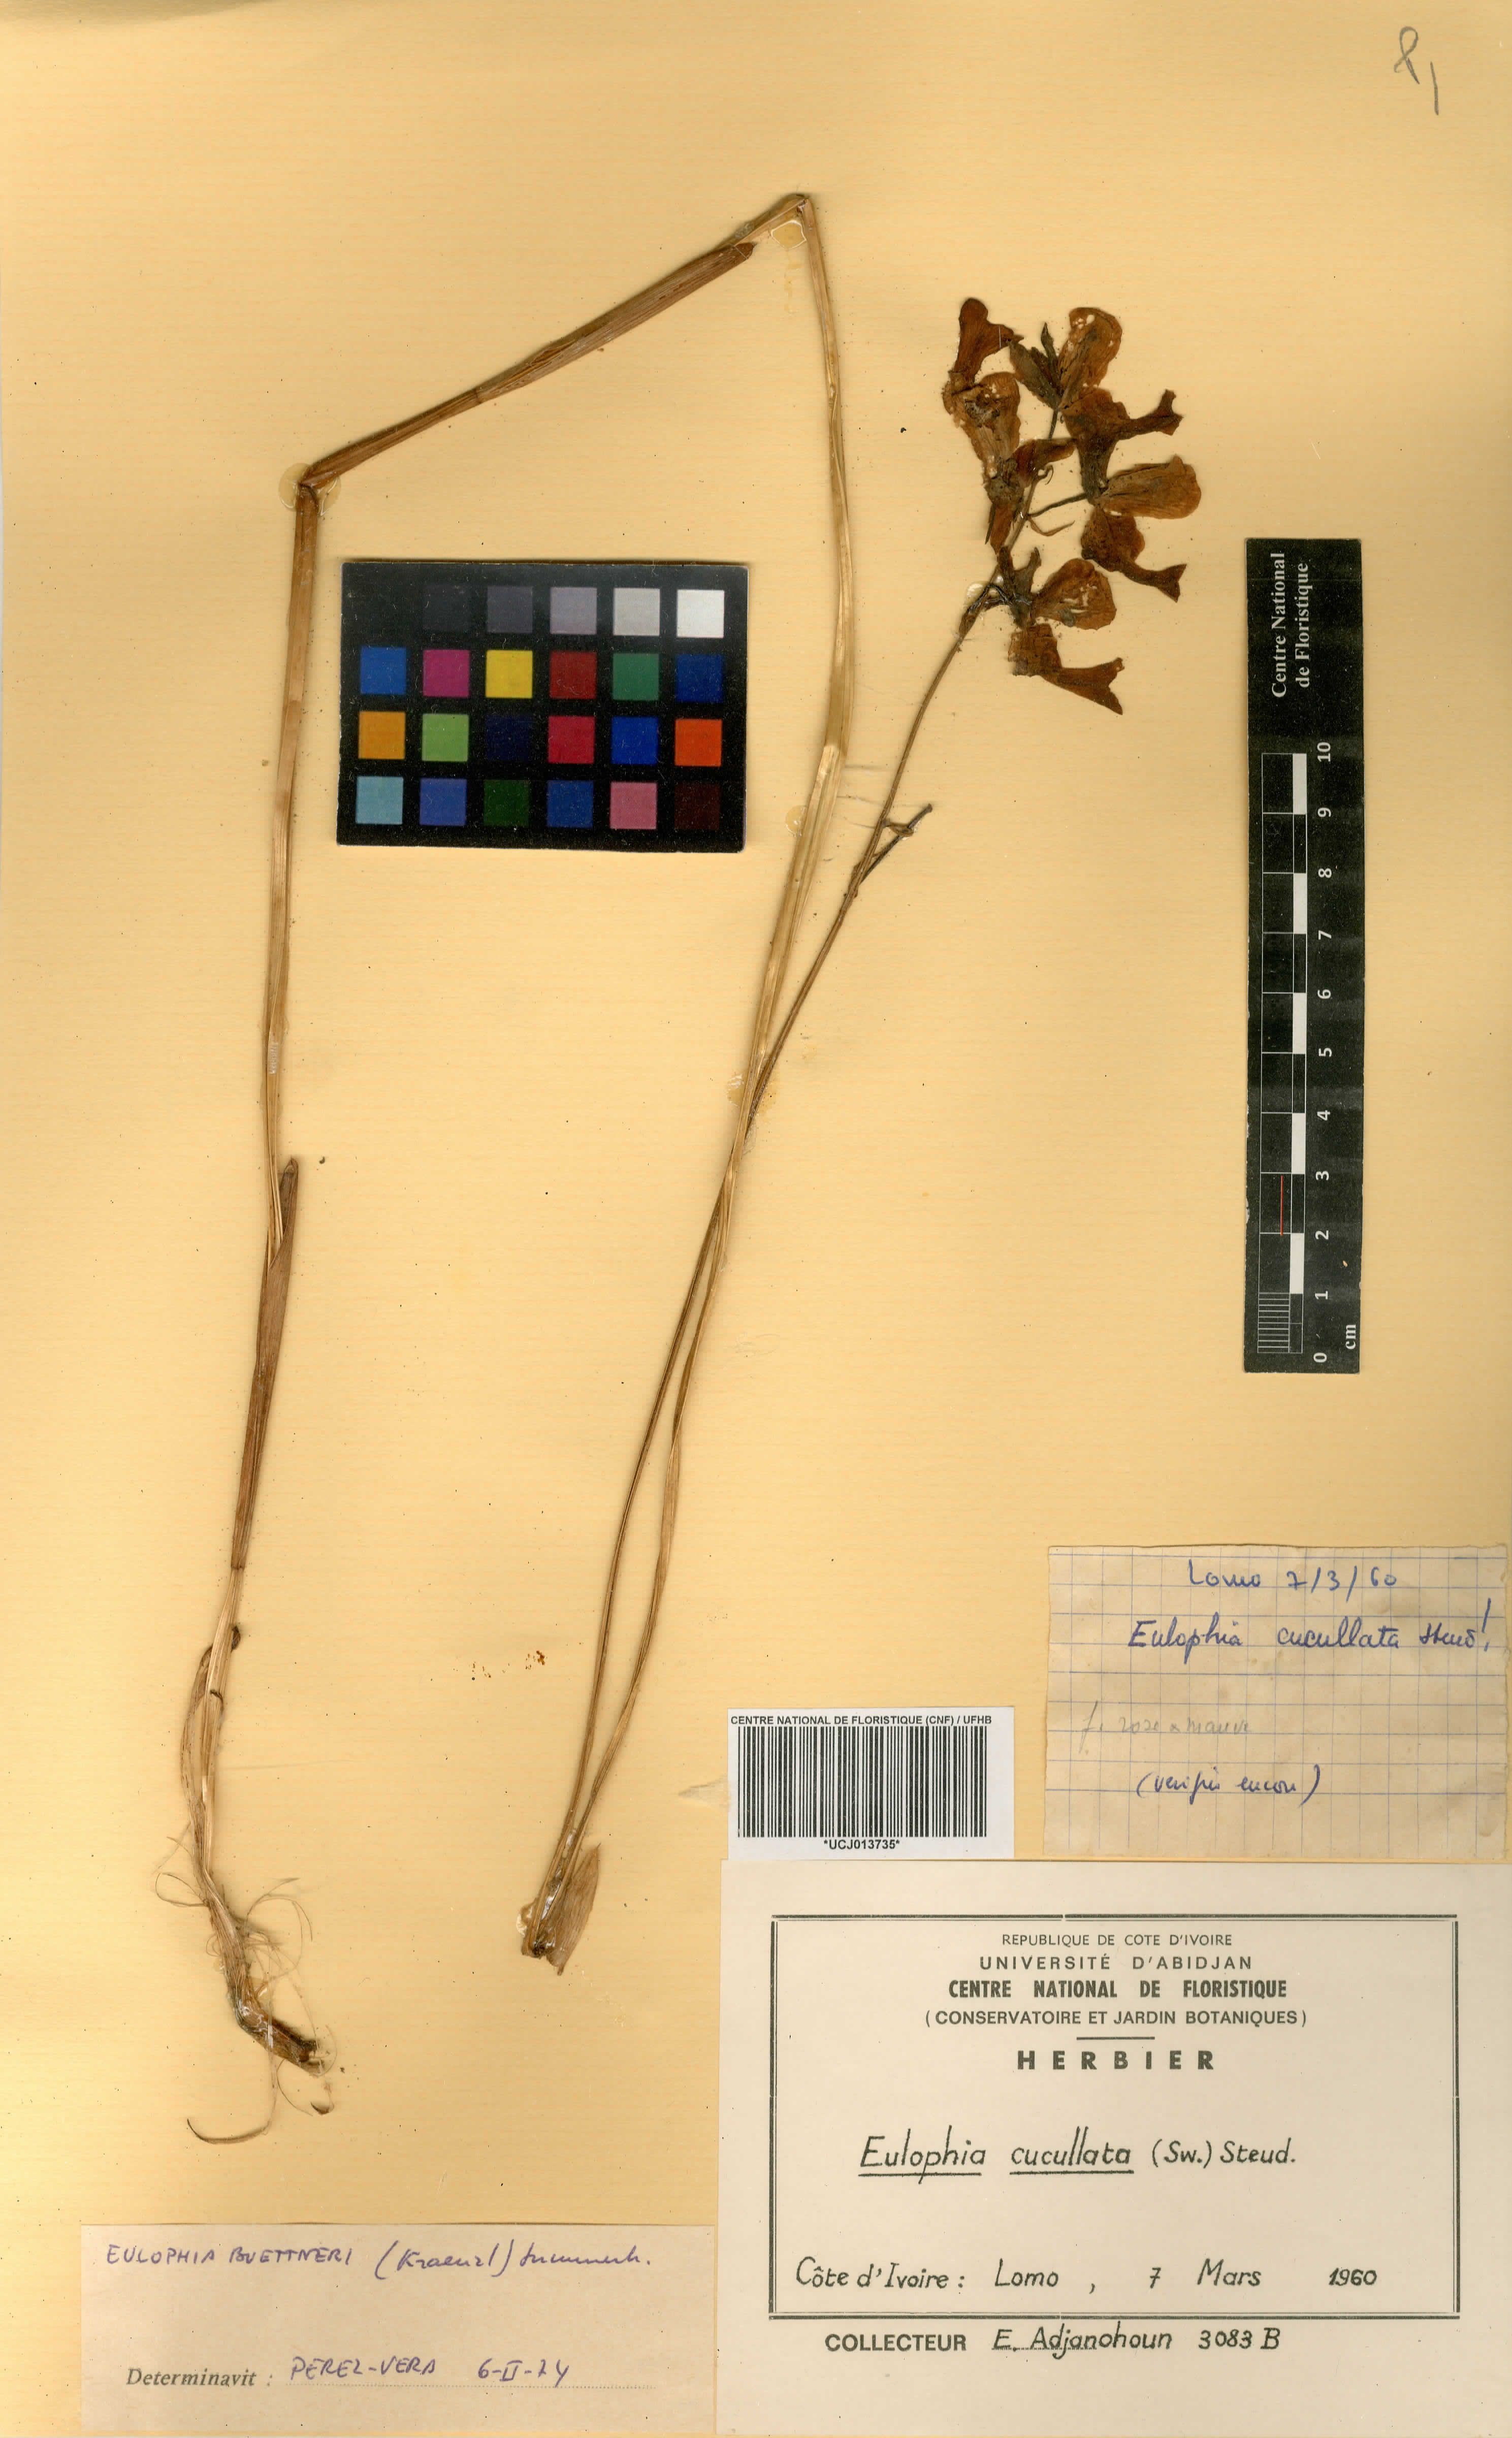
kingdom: Plantae
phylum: Tracheophyta
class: Liliopsida
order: Asparagales
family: Orchidaceae
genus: Eulophia
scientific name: Eulophia cucullata
